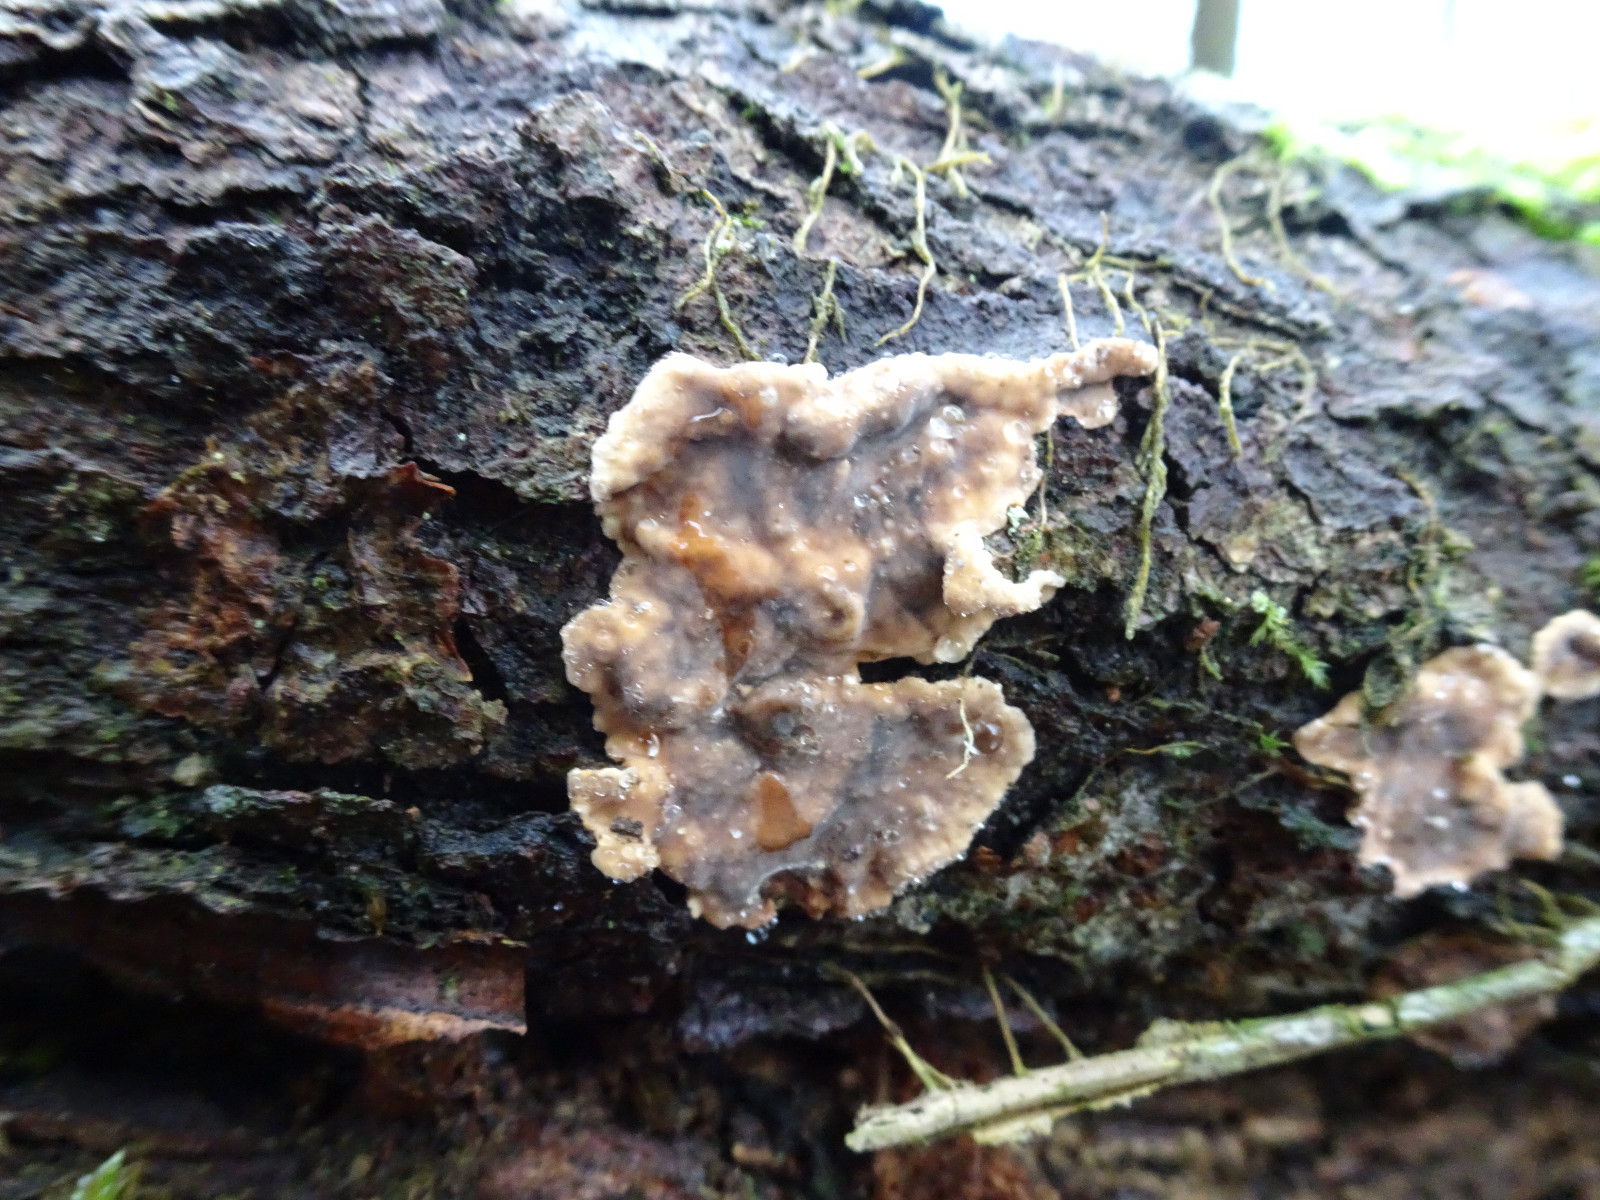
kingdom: Fungi
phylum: Basidiomycota
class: Agaricomycetes
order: Russulales
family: Stereaceae
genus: Stereum
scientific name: Stereum rugosum
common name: rynket lædersvamp
